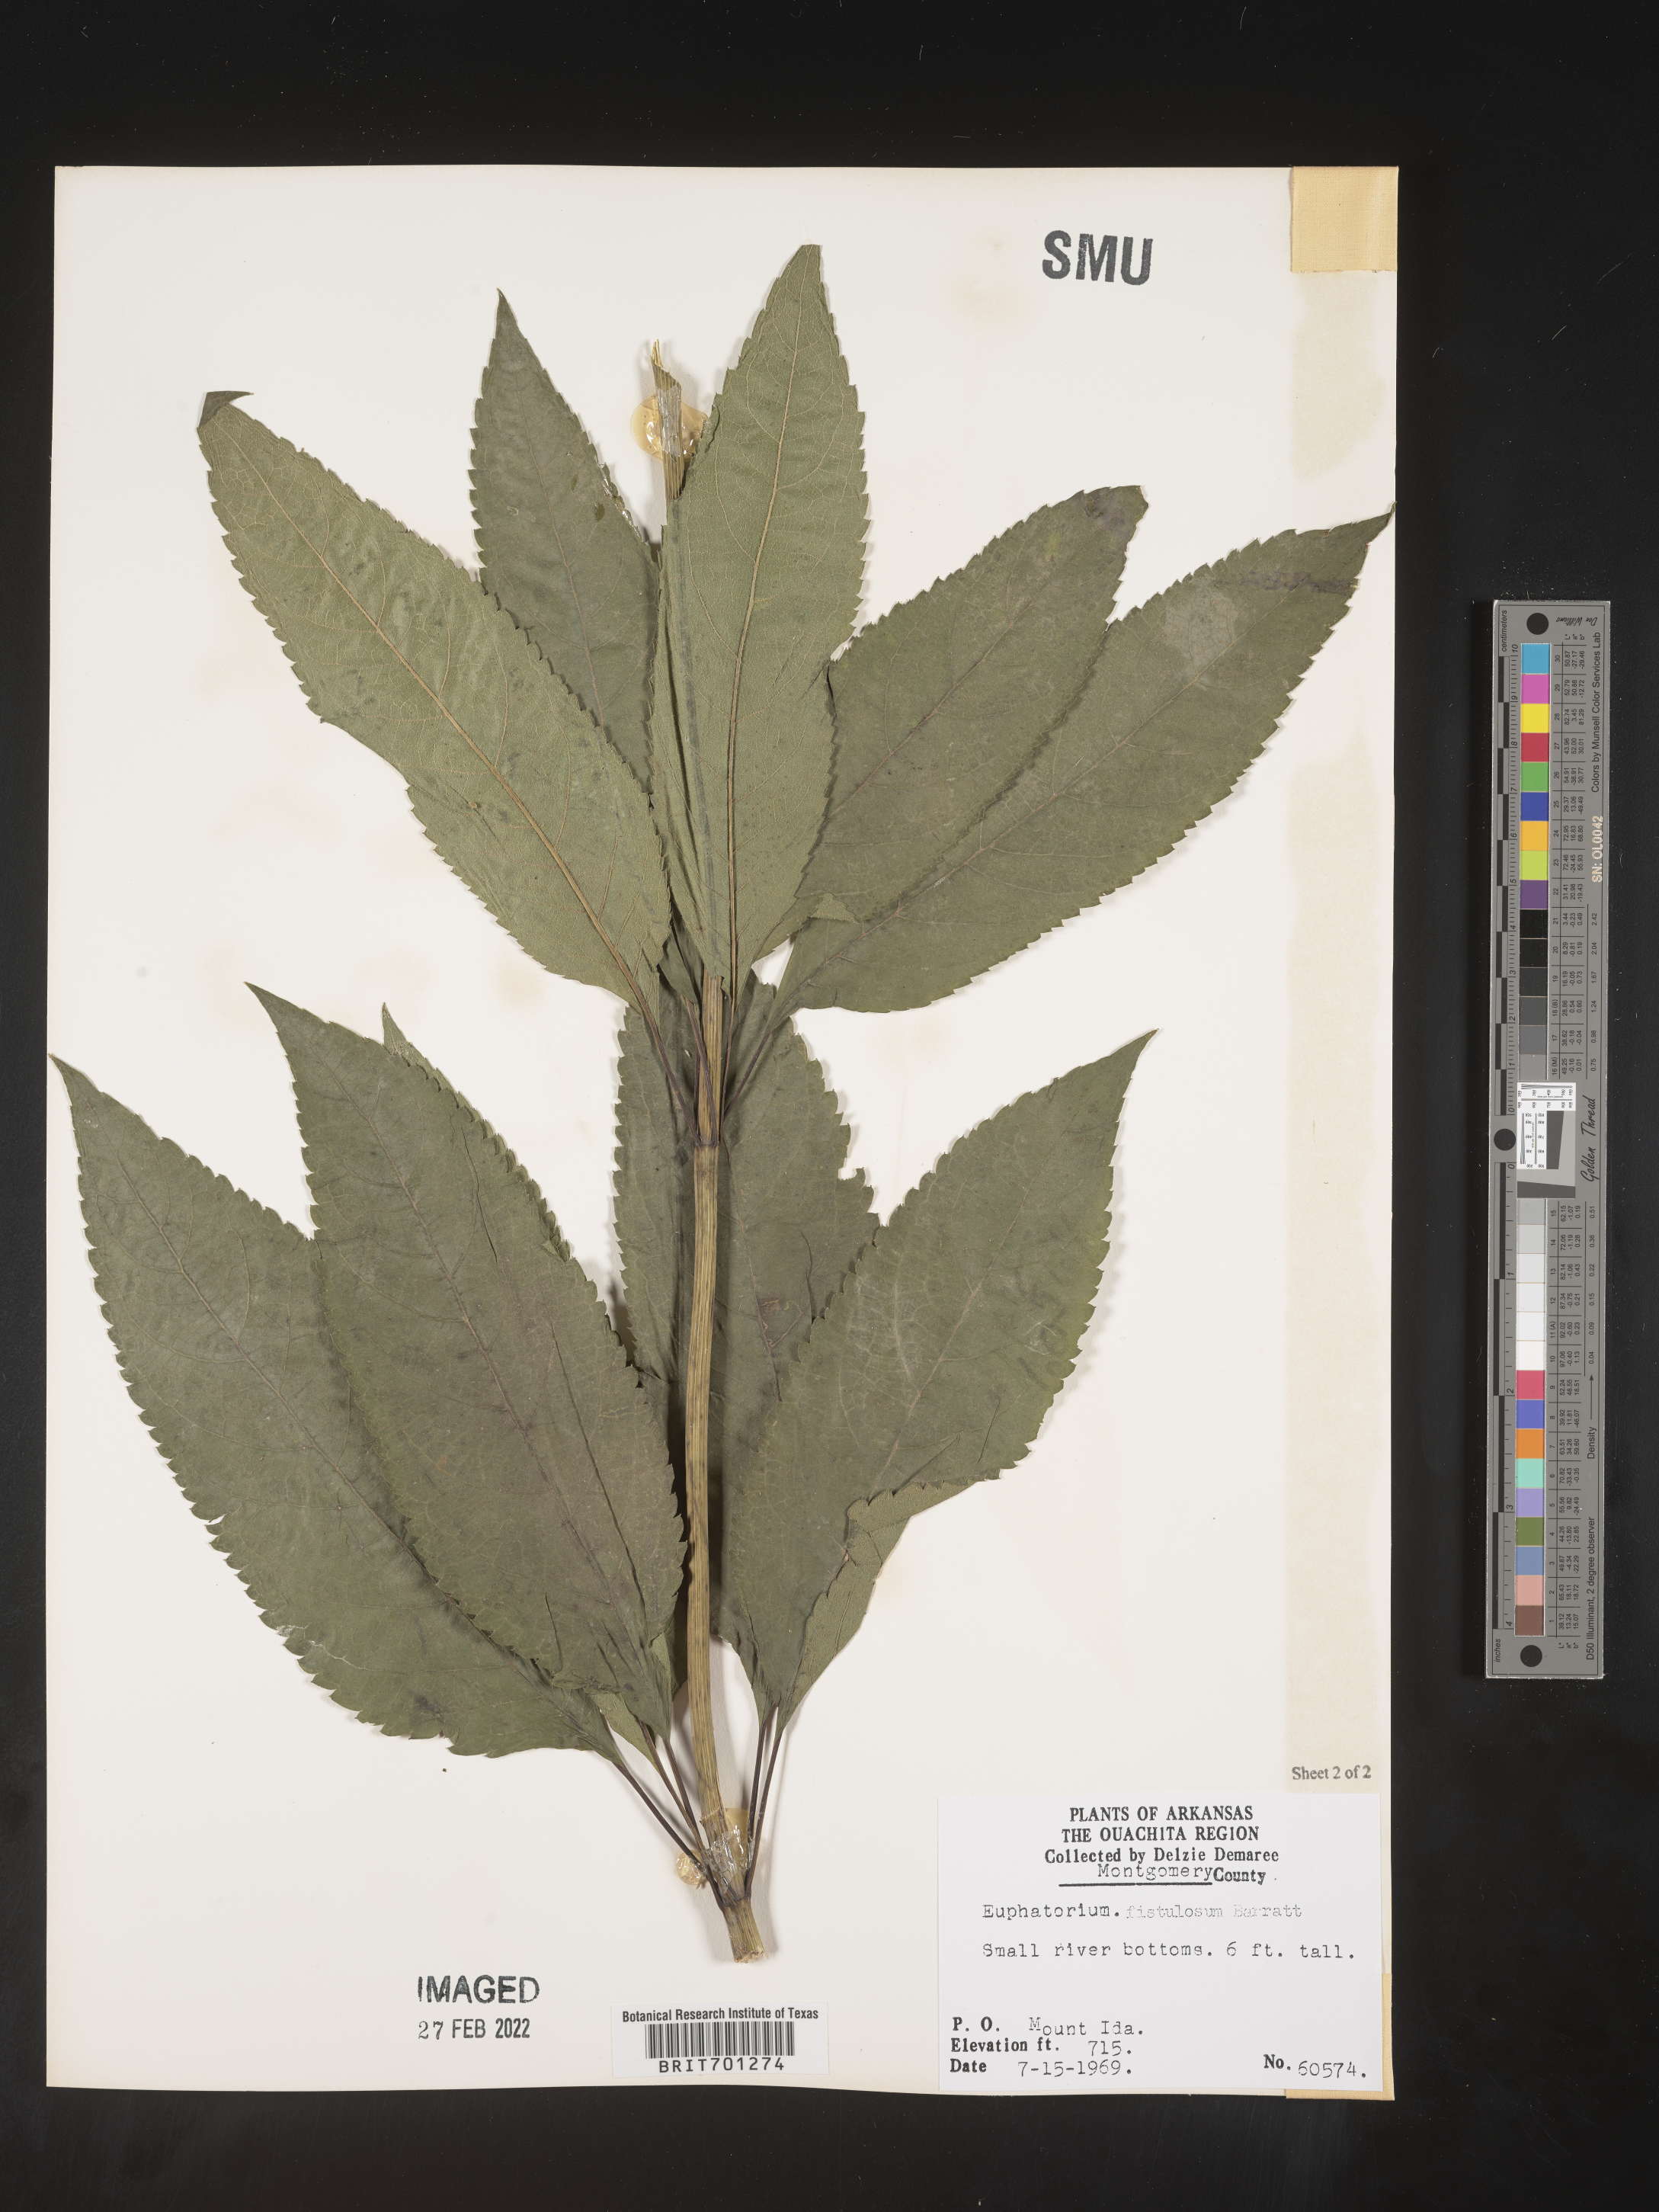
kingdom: Plantae
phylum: Tracheophyta
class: Magnoliopsida
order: Asterales
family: Asteraceae
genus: Eutrochium
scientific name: Eutrochium fistulosum
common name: Trumpetweed
